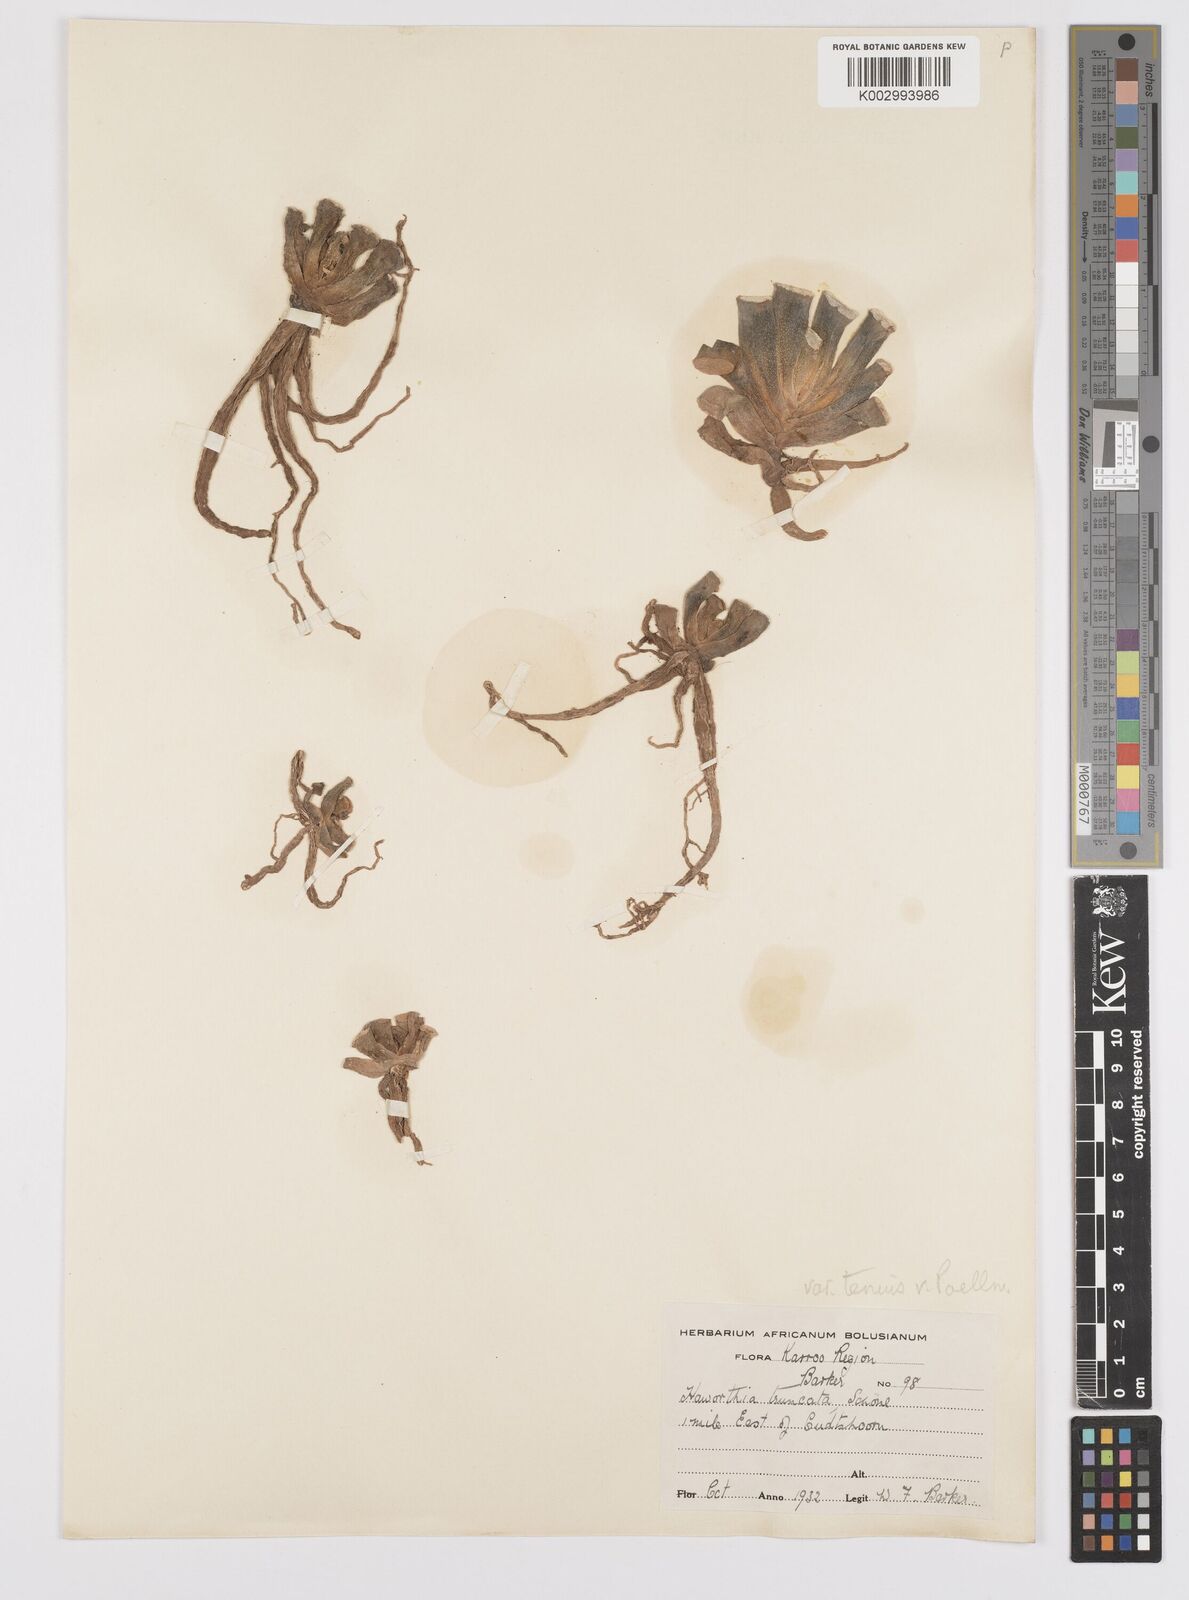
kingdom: Plantae
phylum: Tracheophyta
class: Liliopsida
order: Asparagales
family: Asphodelaceae
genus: Haworthia
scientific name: Haworthia truncata
